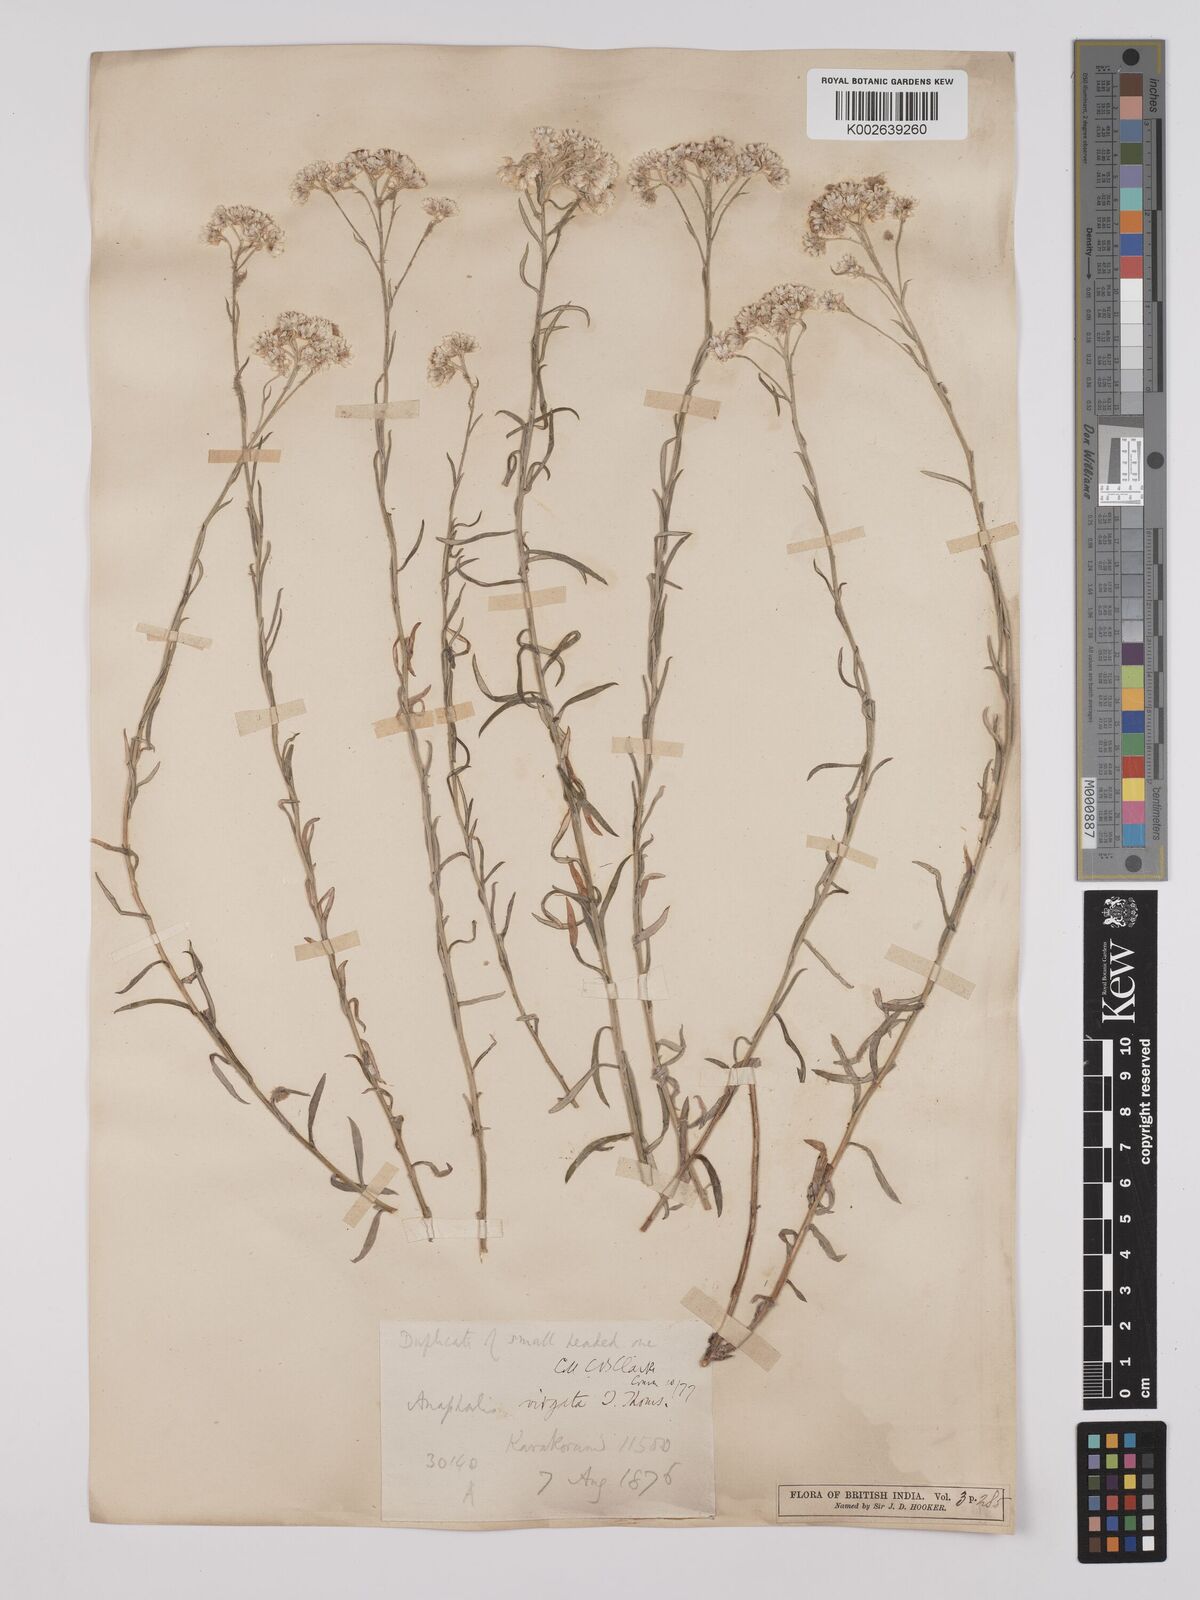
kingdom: Plantae
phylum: Tracheophyta
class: Magnoliopsida
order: Asterales
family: Asteraceae
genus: Anaphalis
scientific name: Anaphalis virgata
